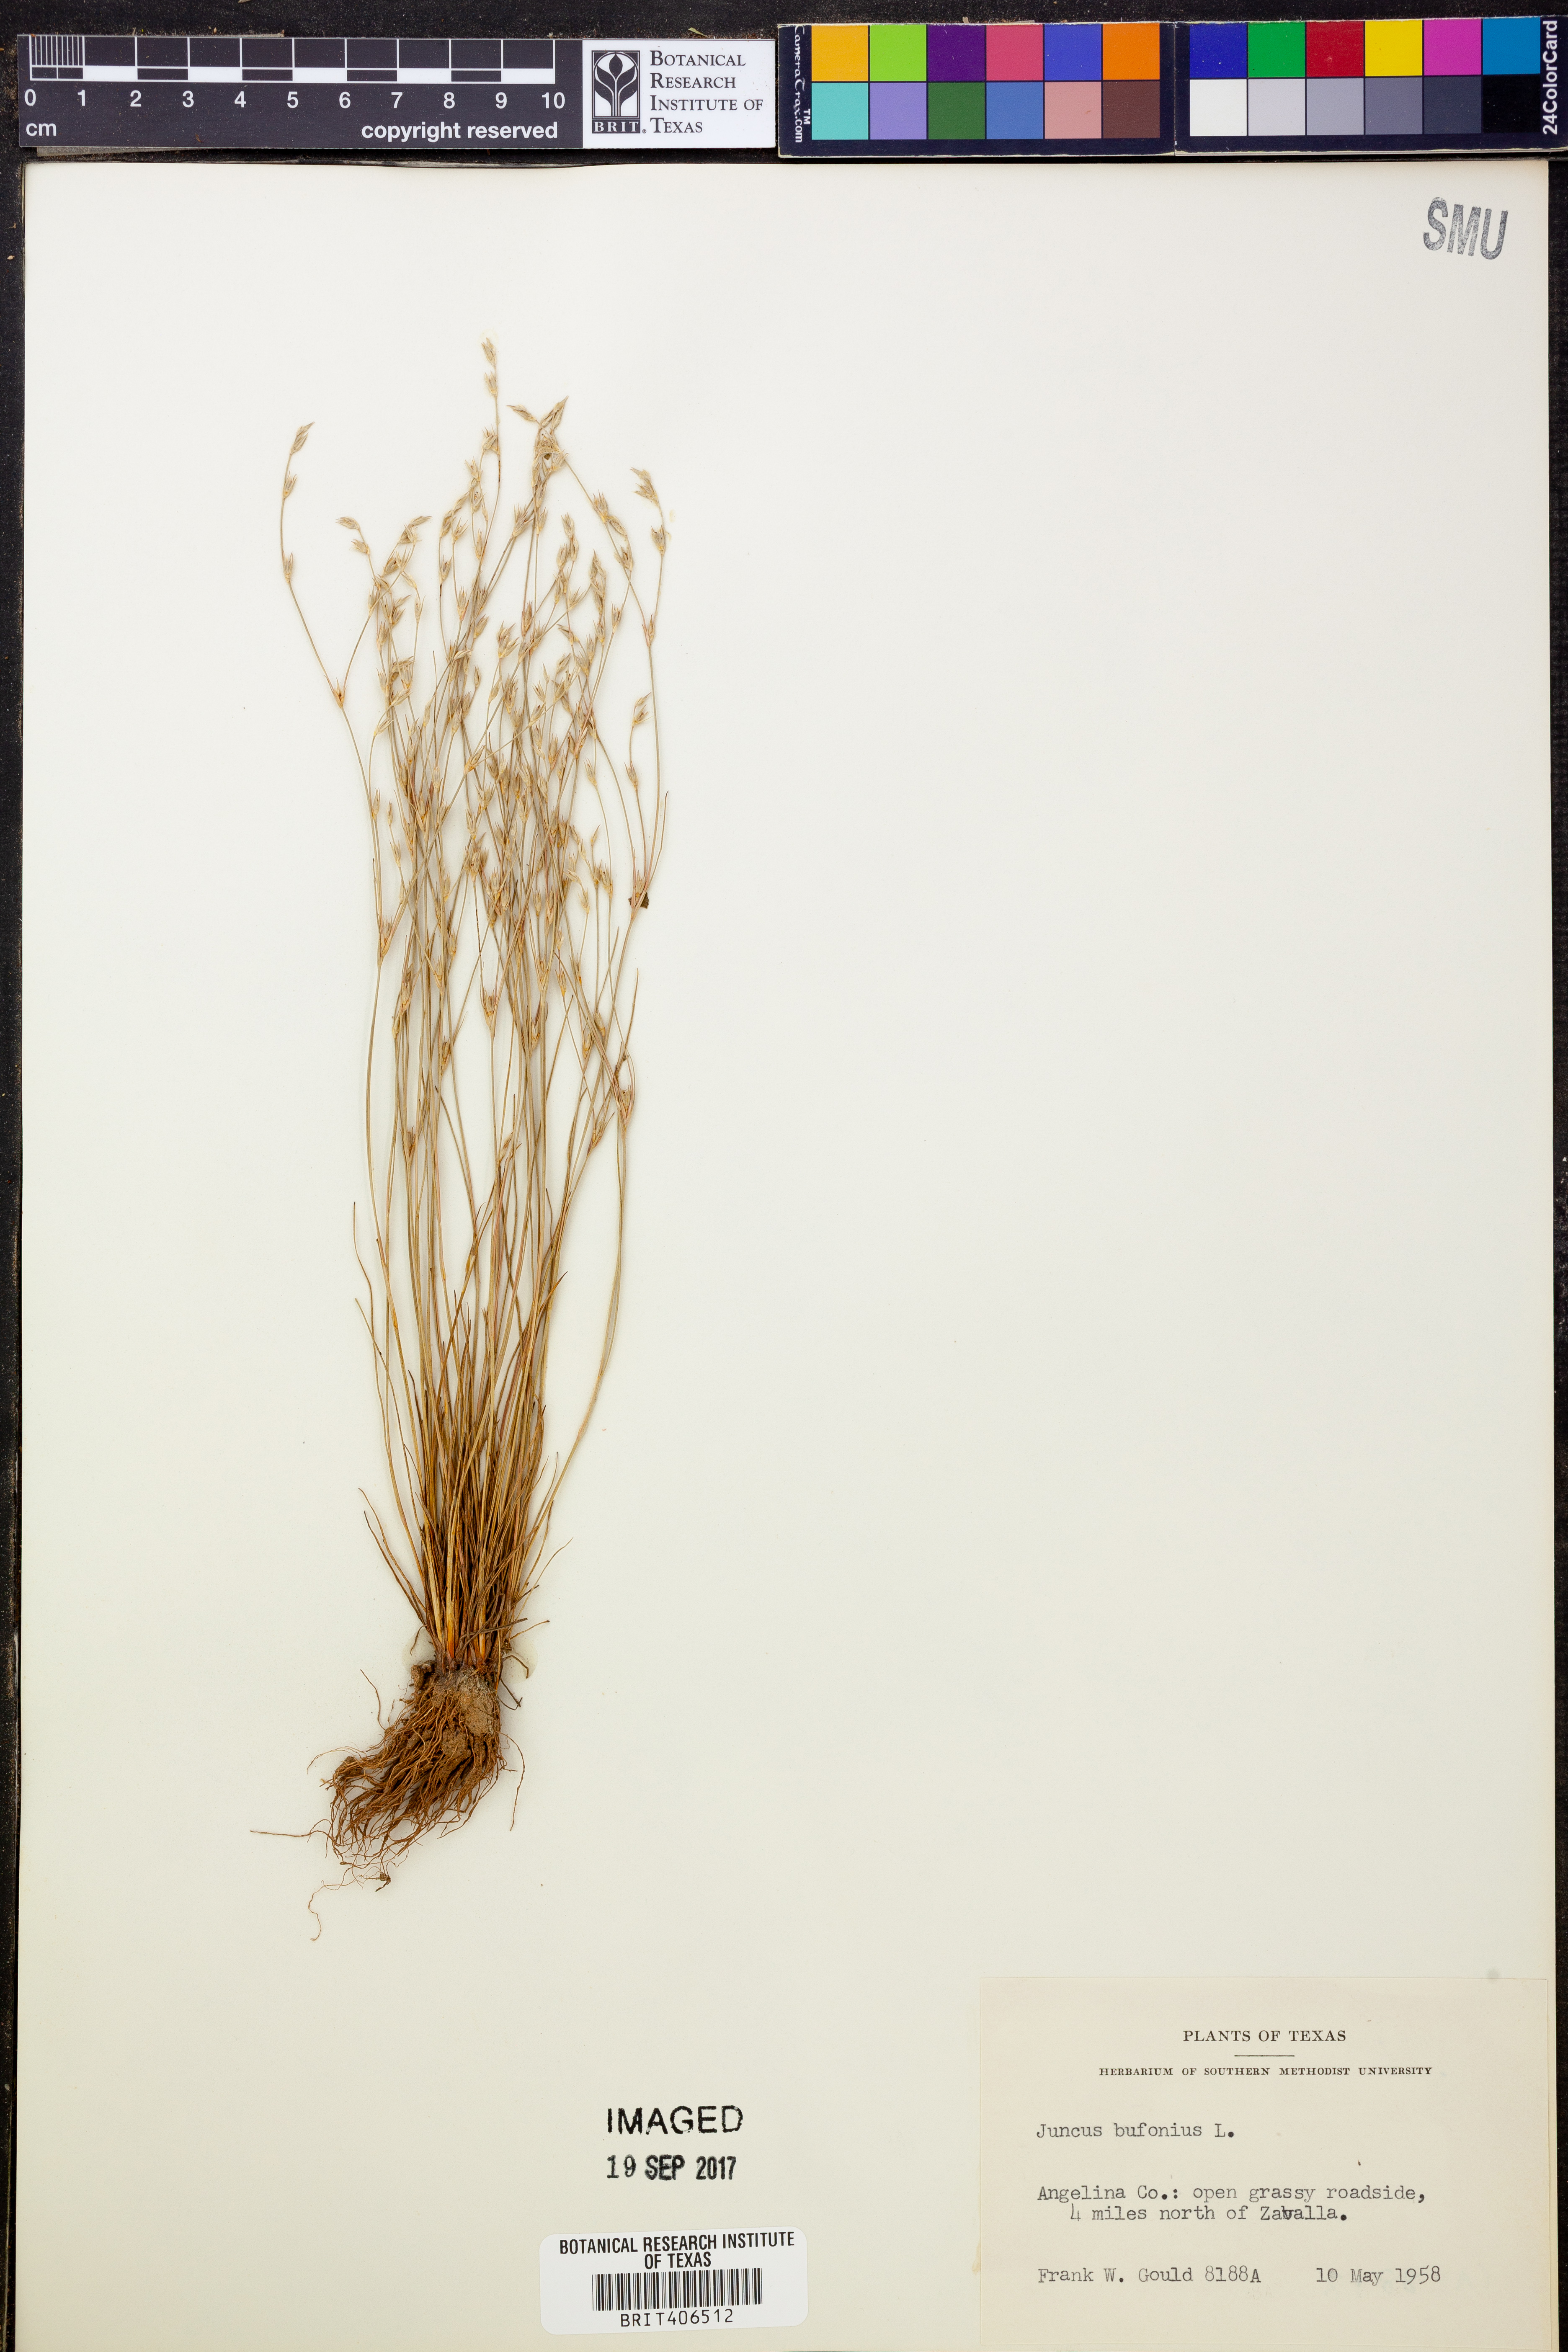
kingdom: Plantae
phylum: Tracheophyta
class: Liliopsida
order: Poales
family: Juncaceae
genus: Juncus
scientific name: Juncus bufonius
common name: Toad rush
